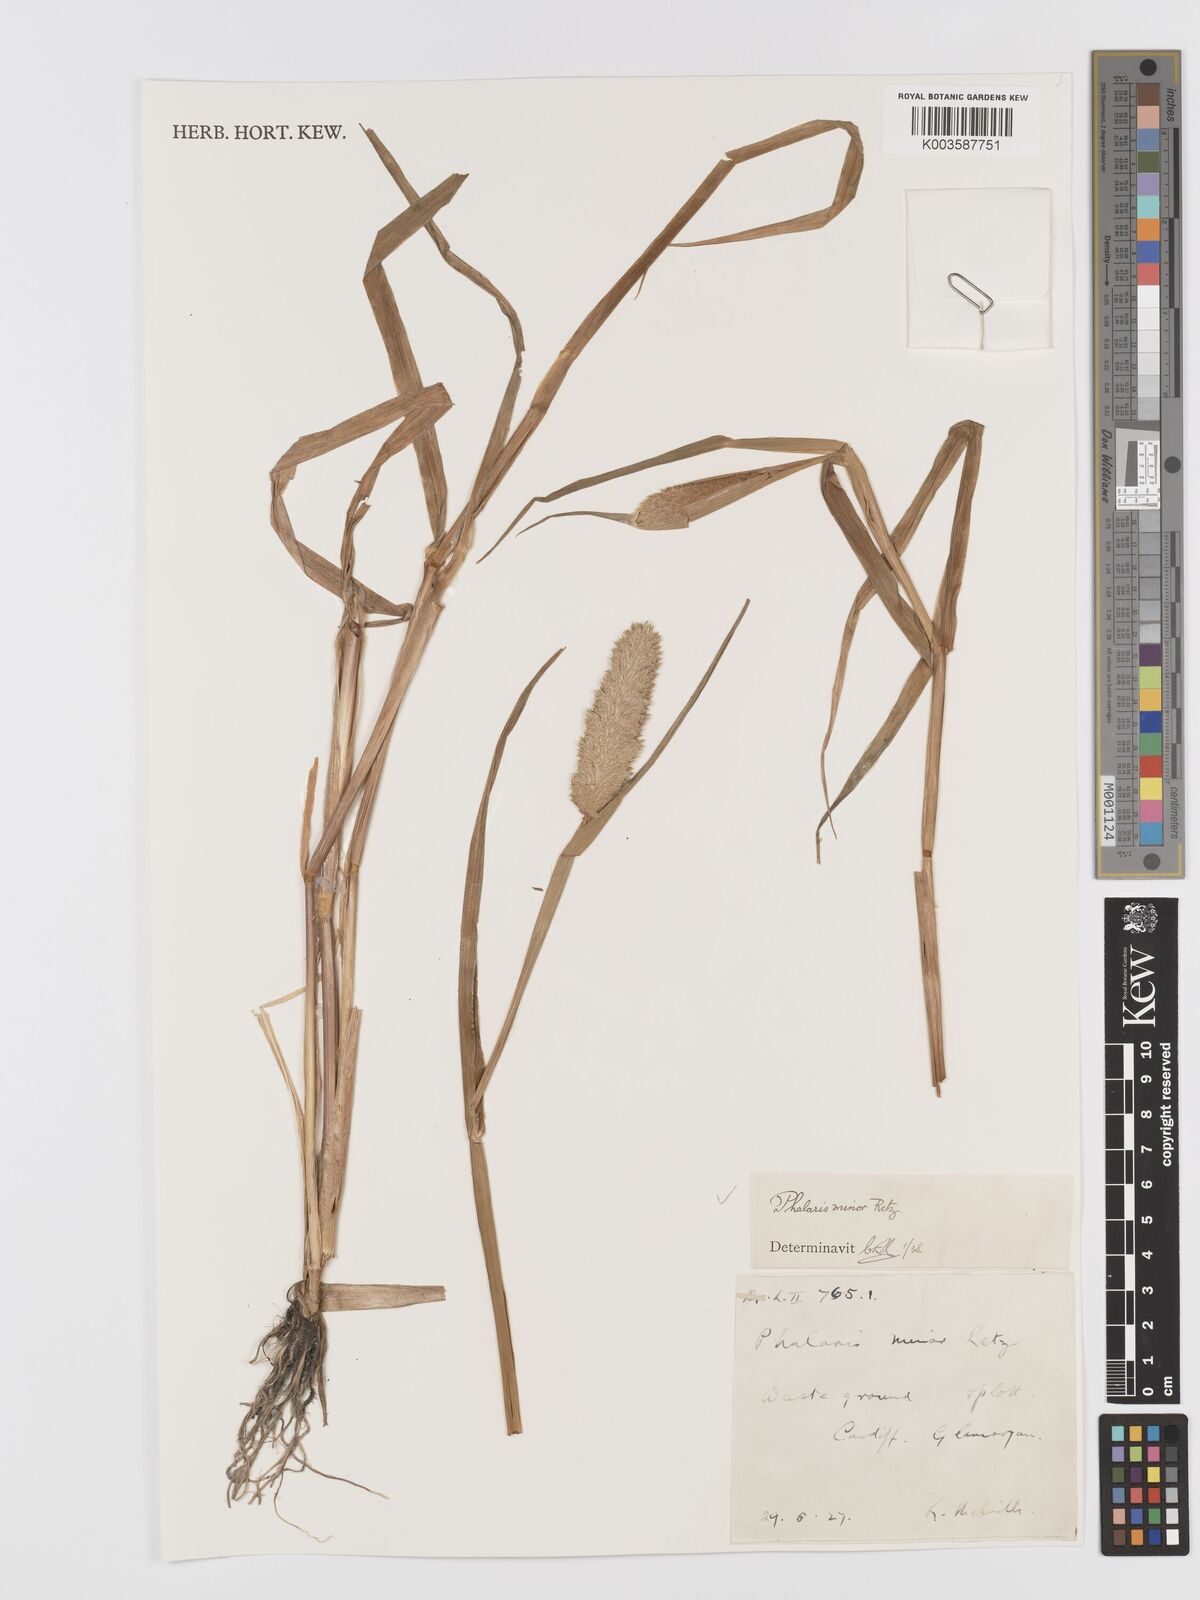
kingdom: Plantae
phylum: Tracheophyta
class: Liliopsida
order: Poales
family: Poaceae
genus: Phalaris
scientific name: Phalaris minor
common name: Littleseed canarygrass
